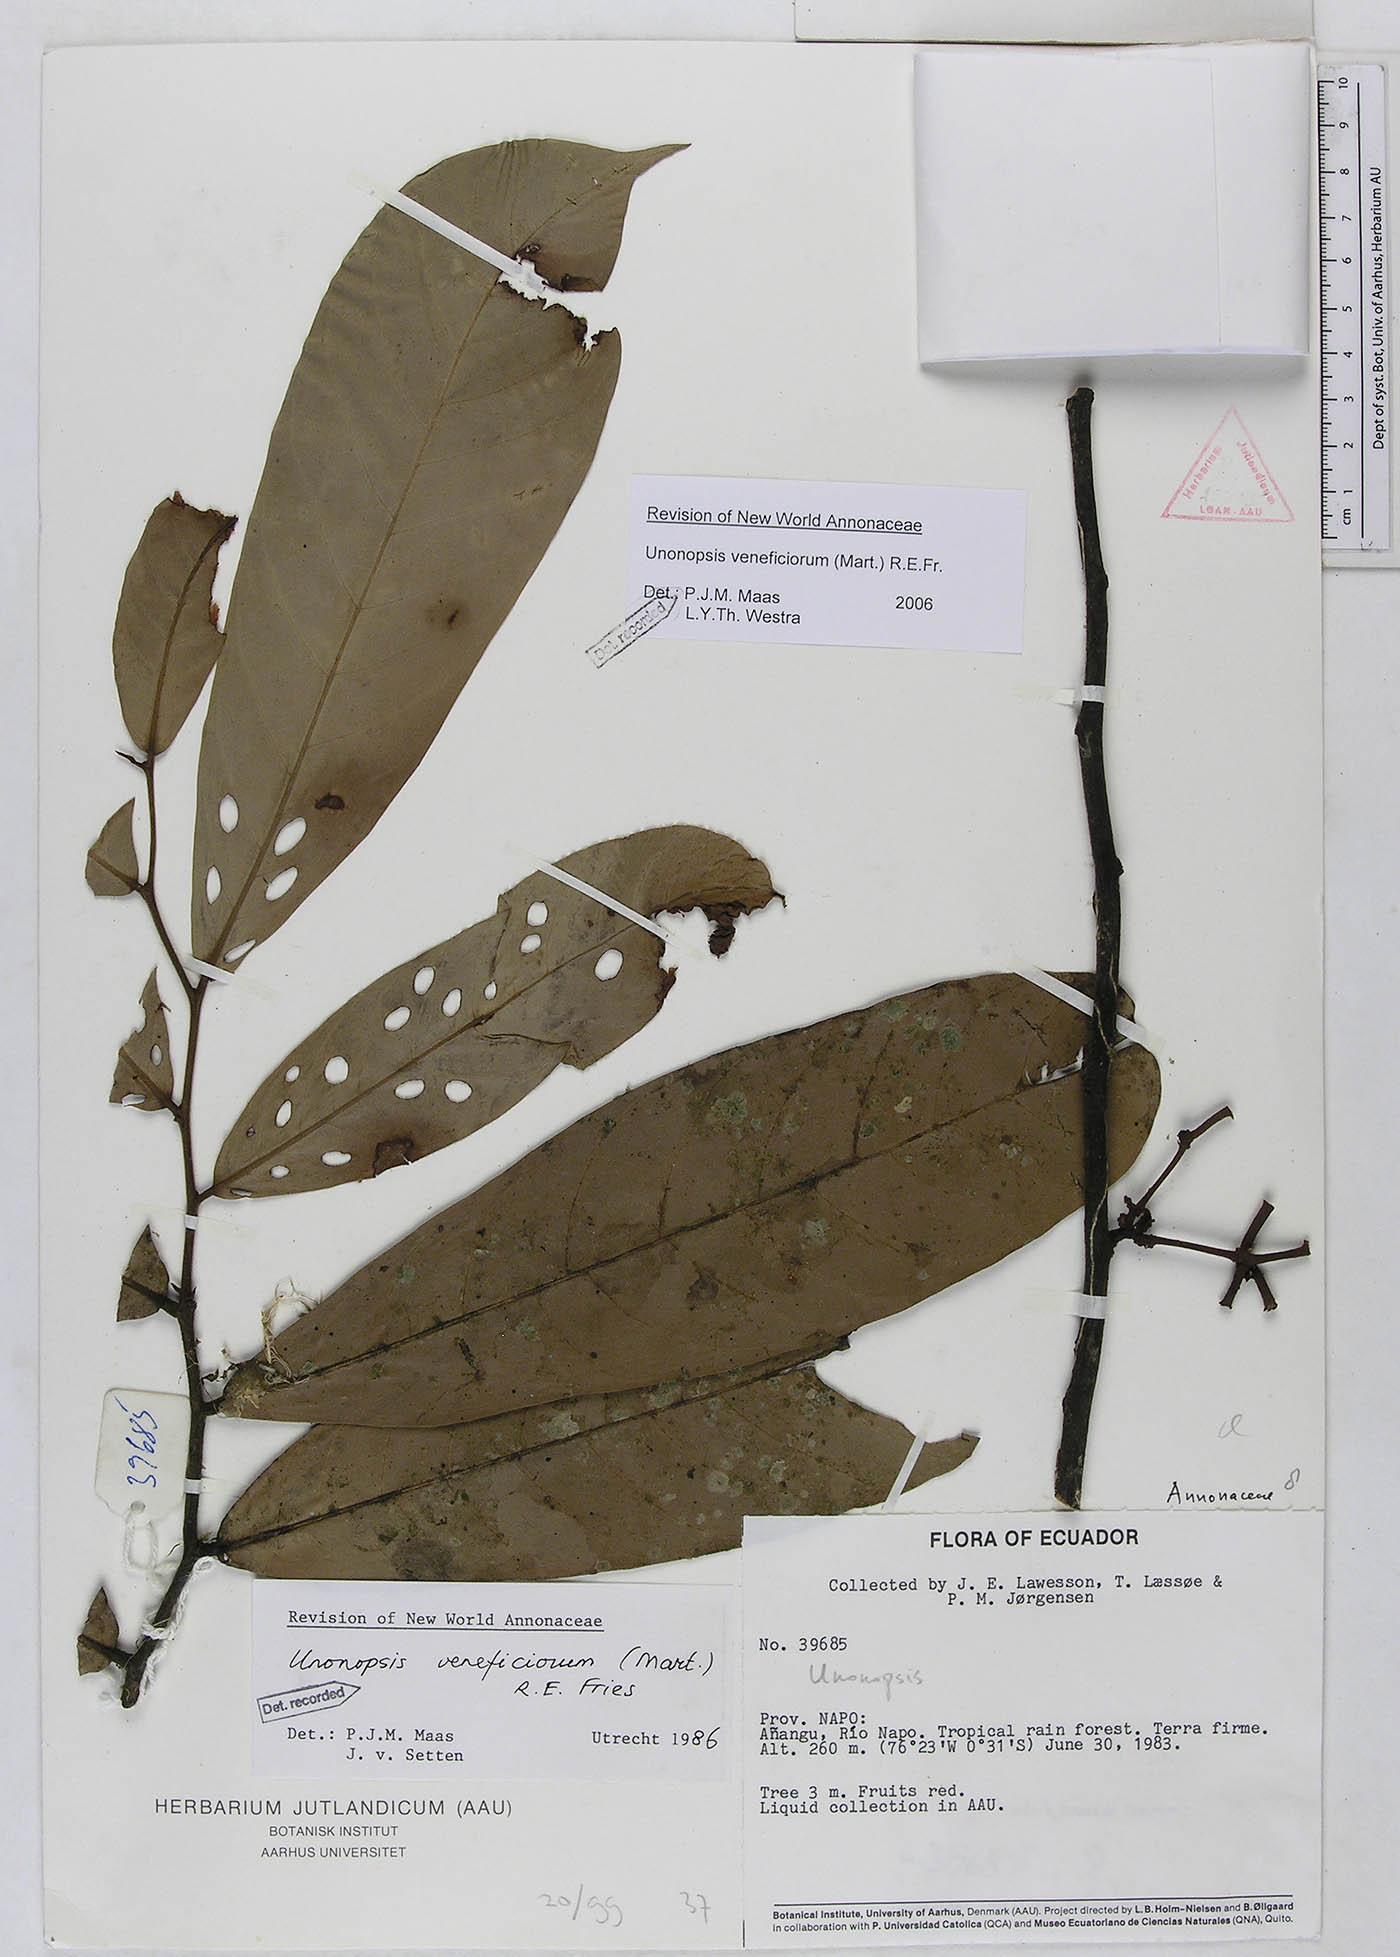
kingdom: Plantae
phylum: Tracheophyta
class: Magnoliopsida
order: Magnoliales
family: Annonaceae
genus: Unonopsis
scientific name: Unonopsis veneficiorum
